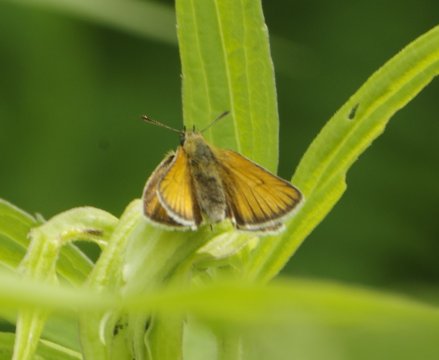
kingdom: Animalia
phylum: Arthropoda
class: Insecta
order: Lepidoptera
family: Hesperiidae
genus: Thymelicus
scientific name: Thymelicus lineola
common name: European Skipper
